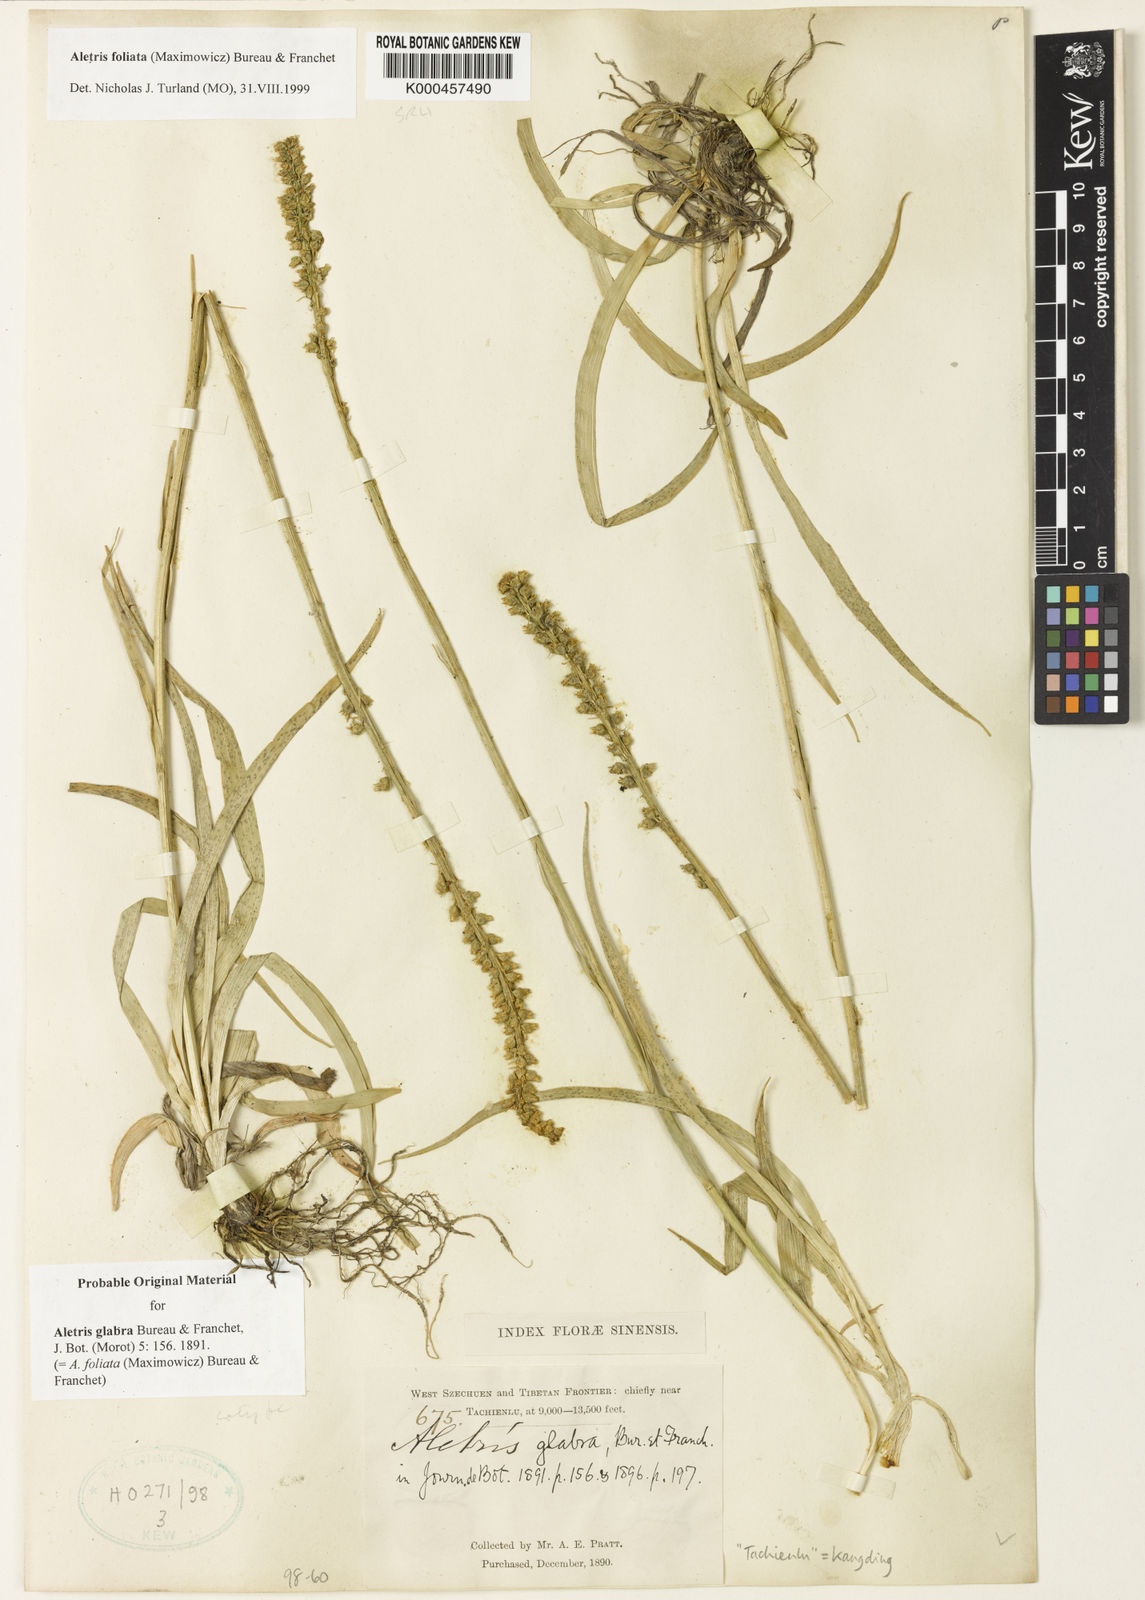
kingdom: Plantae
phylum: Tracheophyta
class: Liliopsida
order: Dioscoreales
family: Nartheciaceae
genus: Aletris
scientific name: Aletris glabra
